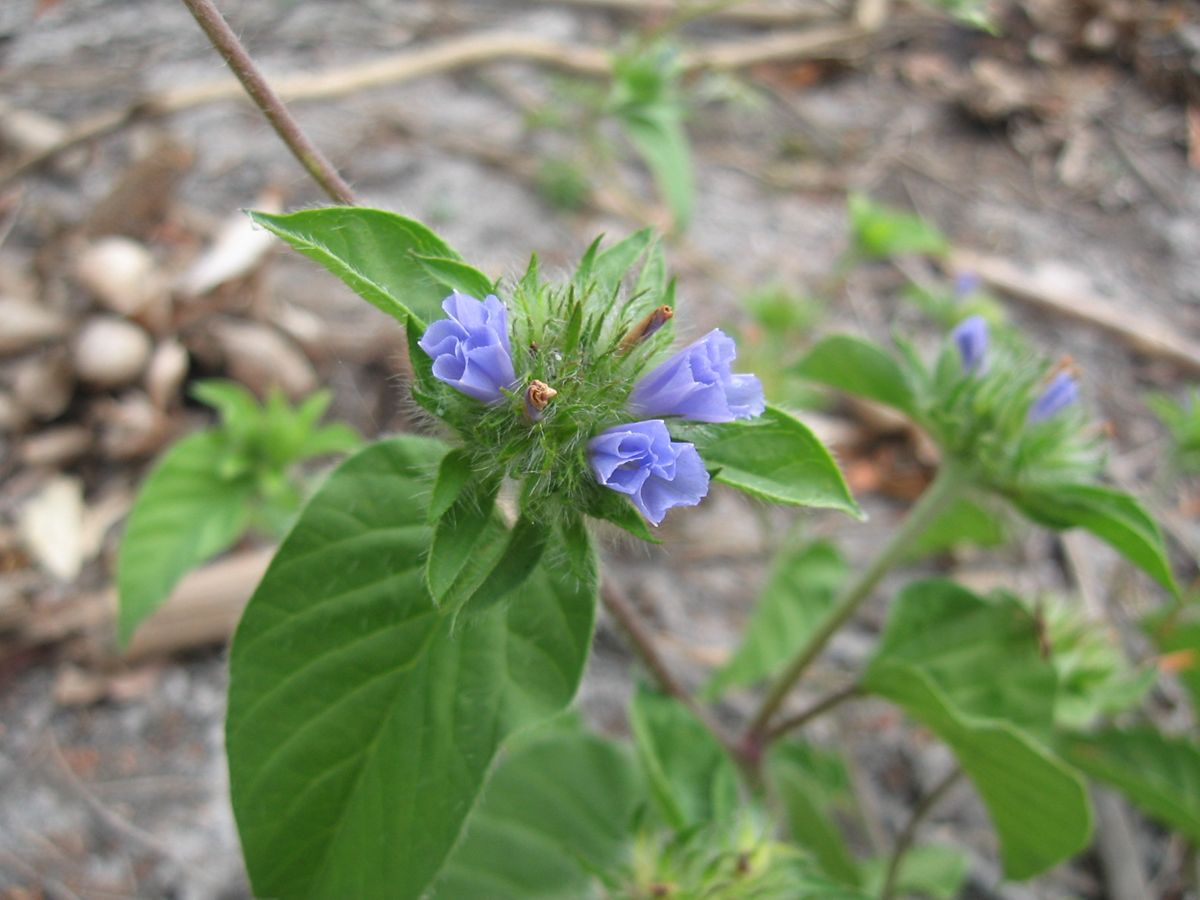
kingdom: Plantae
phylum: Tracheophyta
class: Magnoliopsida
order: Solanales
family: Convolvulaceae
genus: Jacquemontia
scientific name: Jacquemontia tamnifolia
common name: Hairy clustervine
